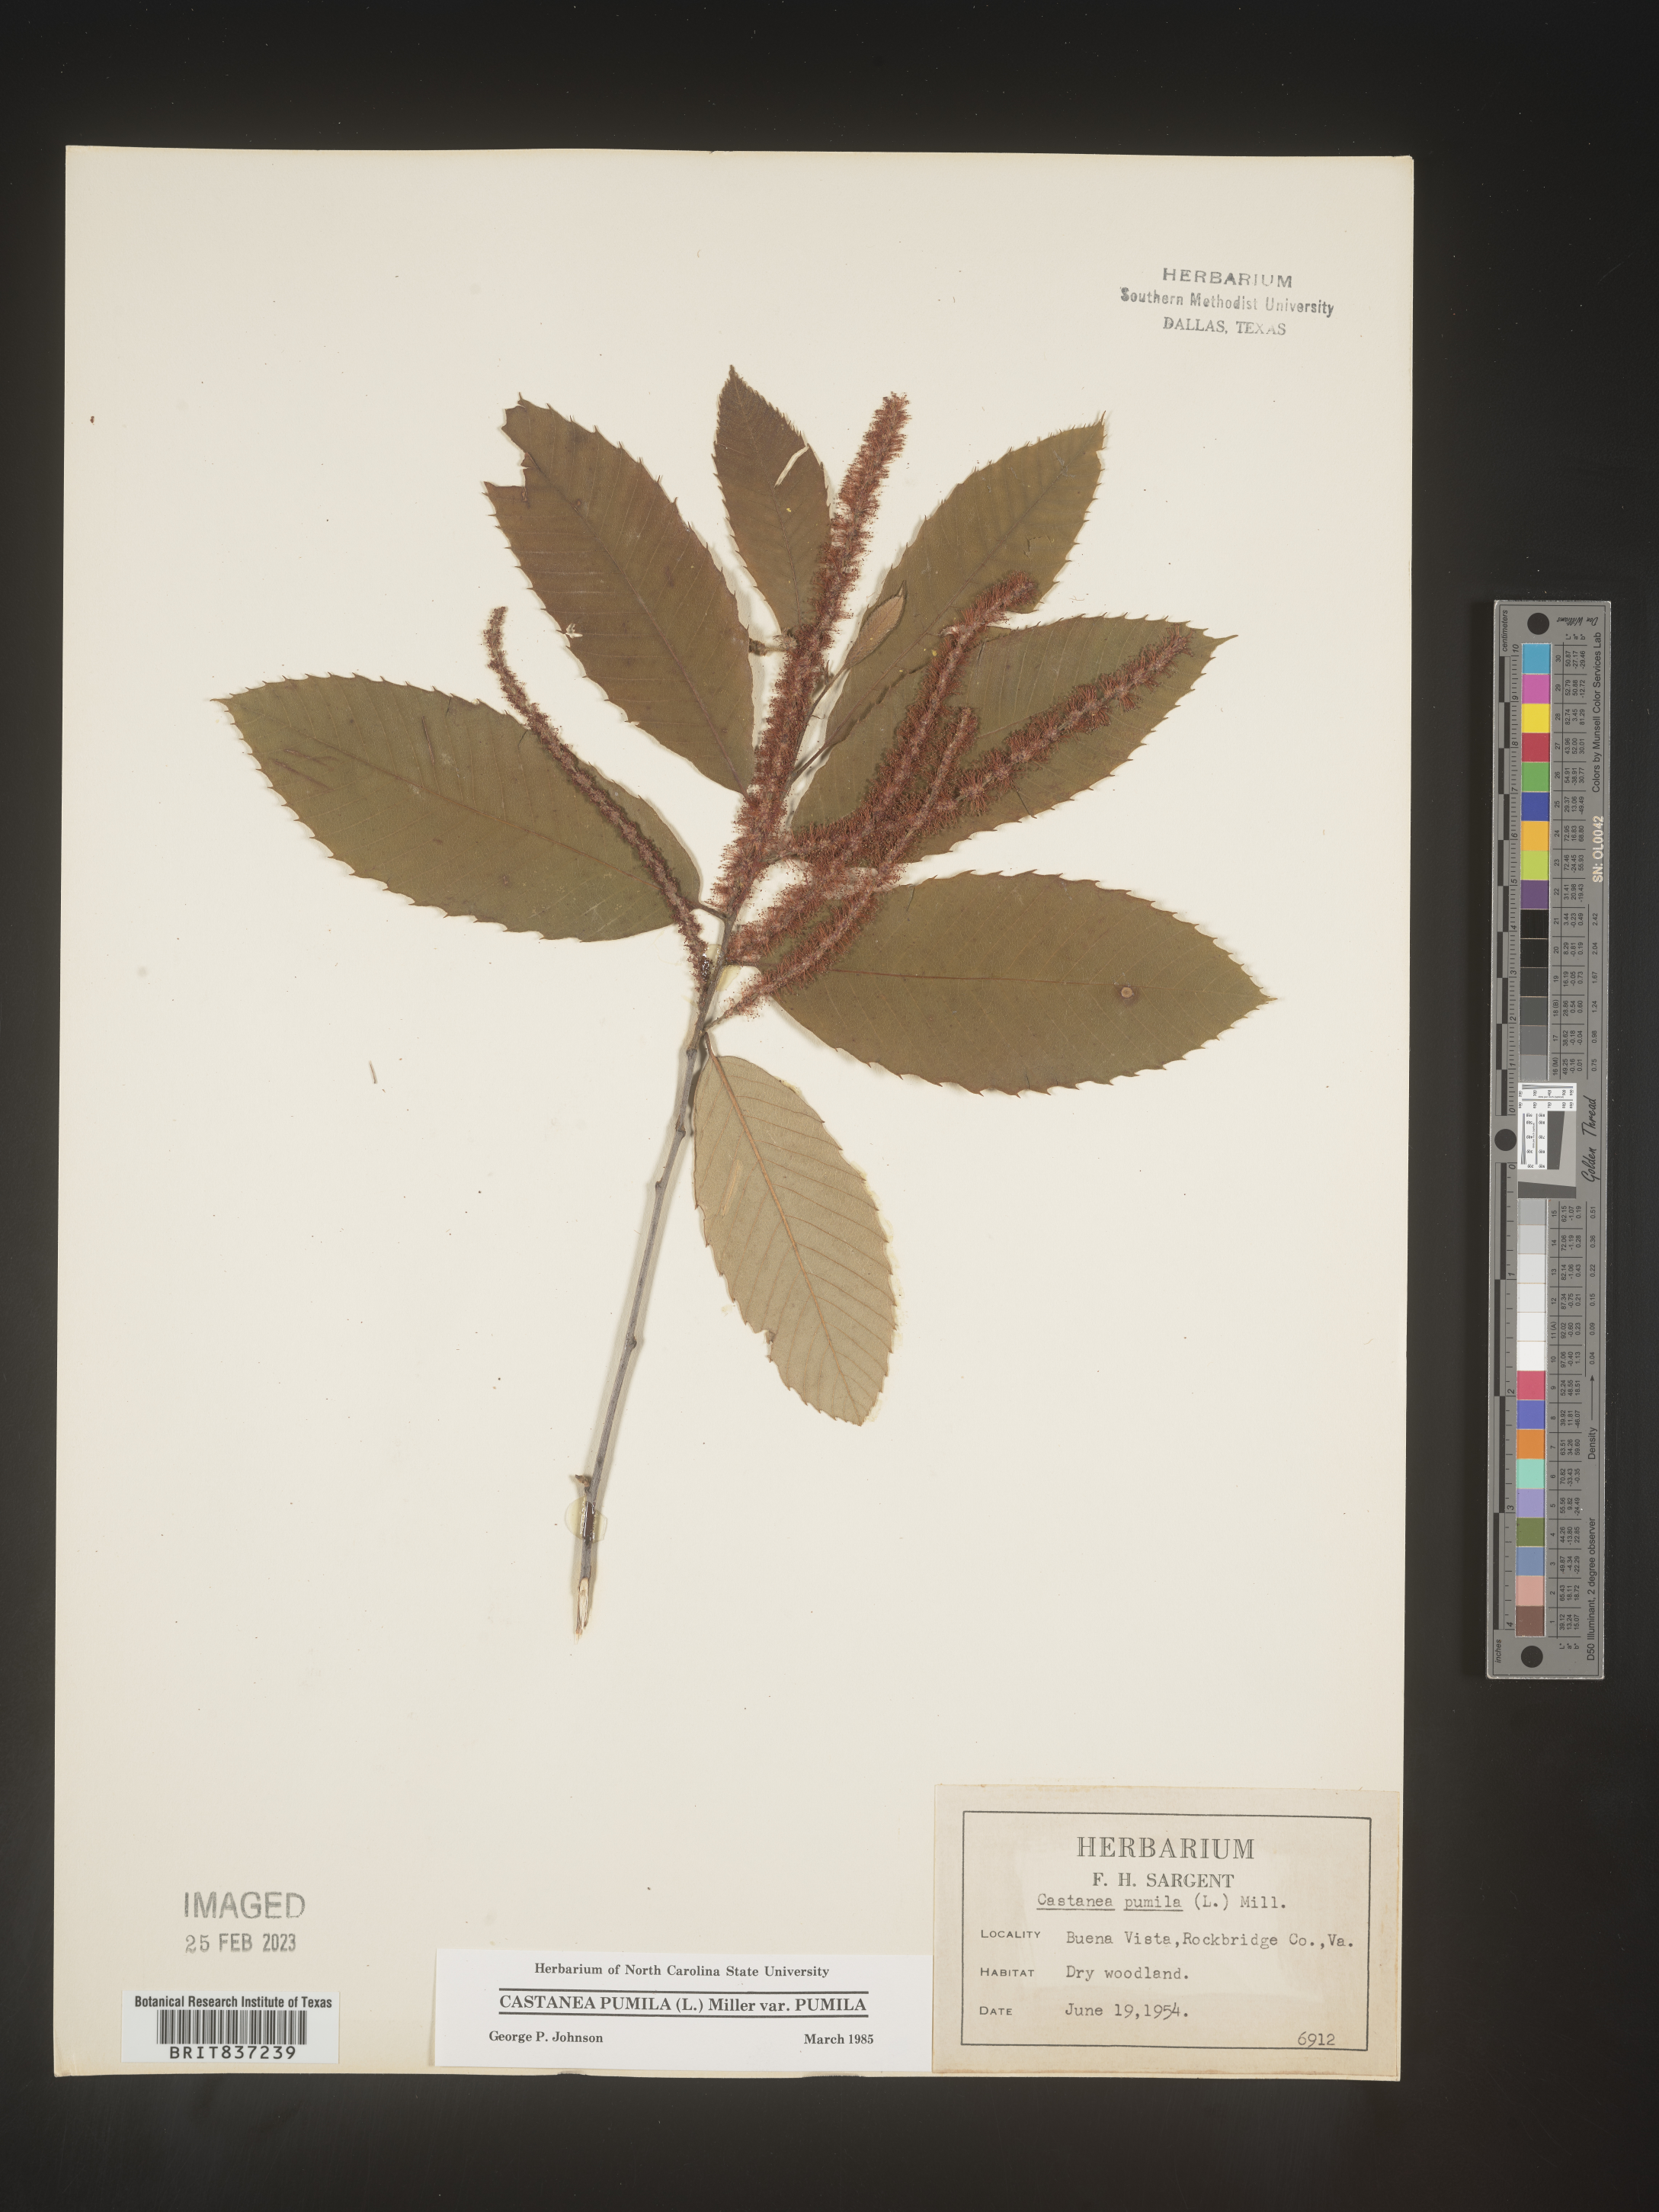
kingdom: Plantae
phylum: Tracheophyta
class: Magnoliopsida
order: Fagales
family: Fagaceae
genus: Castanea
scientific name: Castanea pumila
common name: Chinkapin
